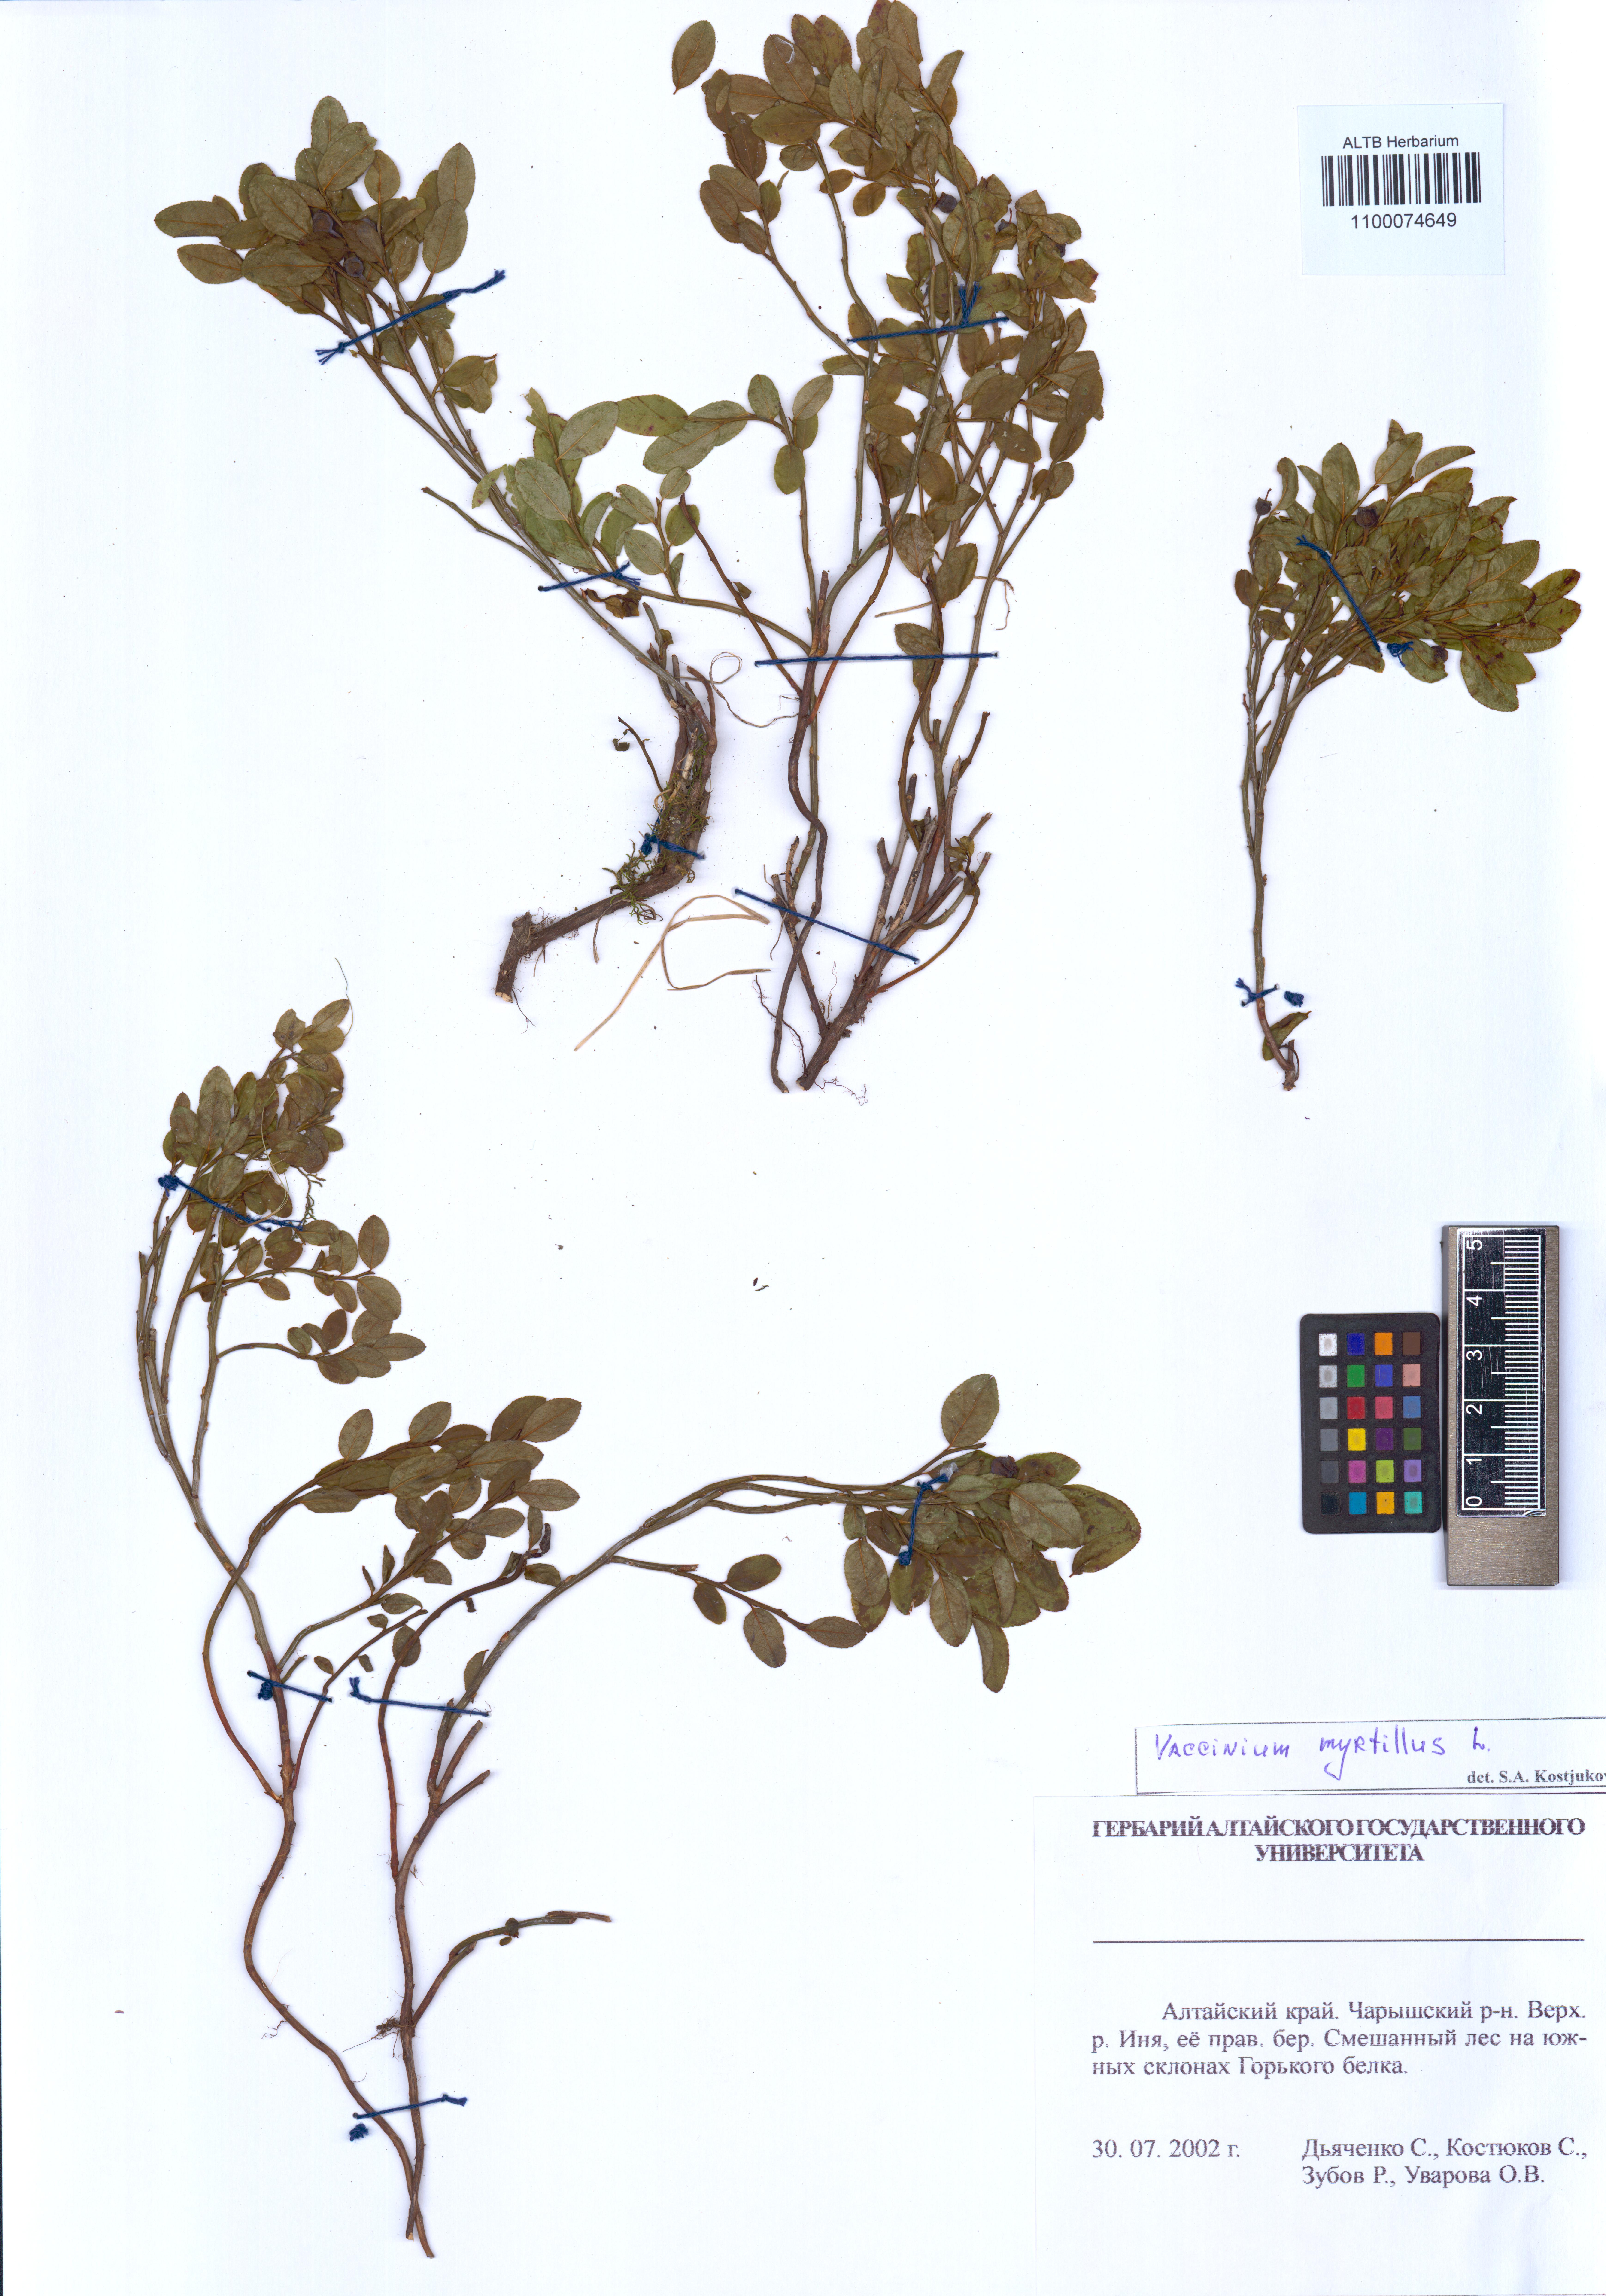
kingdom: Plantae
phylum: Tracheophyta
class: Magnoliopsida
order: Ericales
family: Ericaceae
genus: Vaccinium
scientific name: Vaccinium myrtillus
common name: Bilberry
